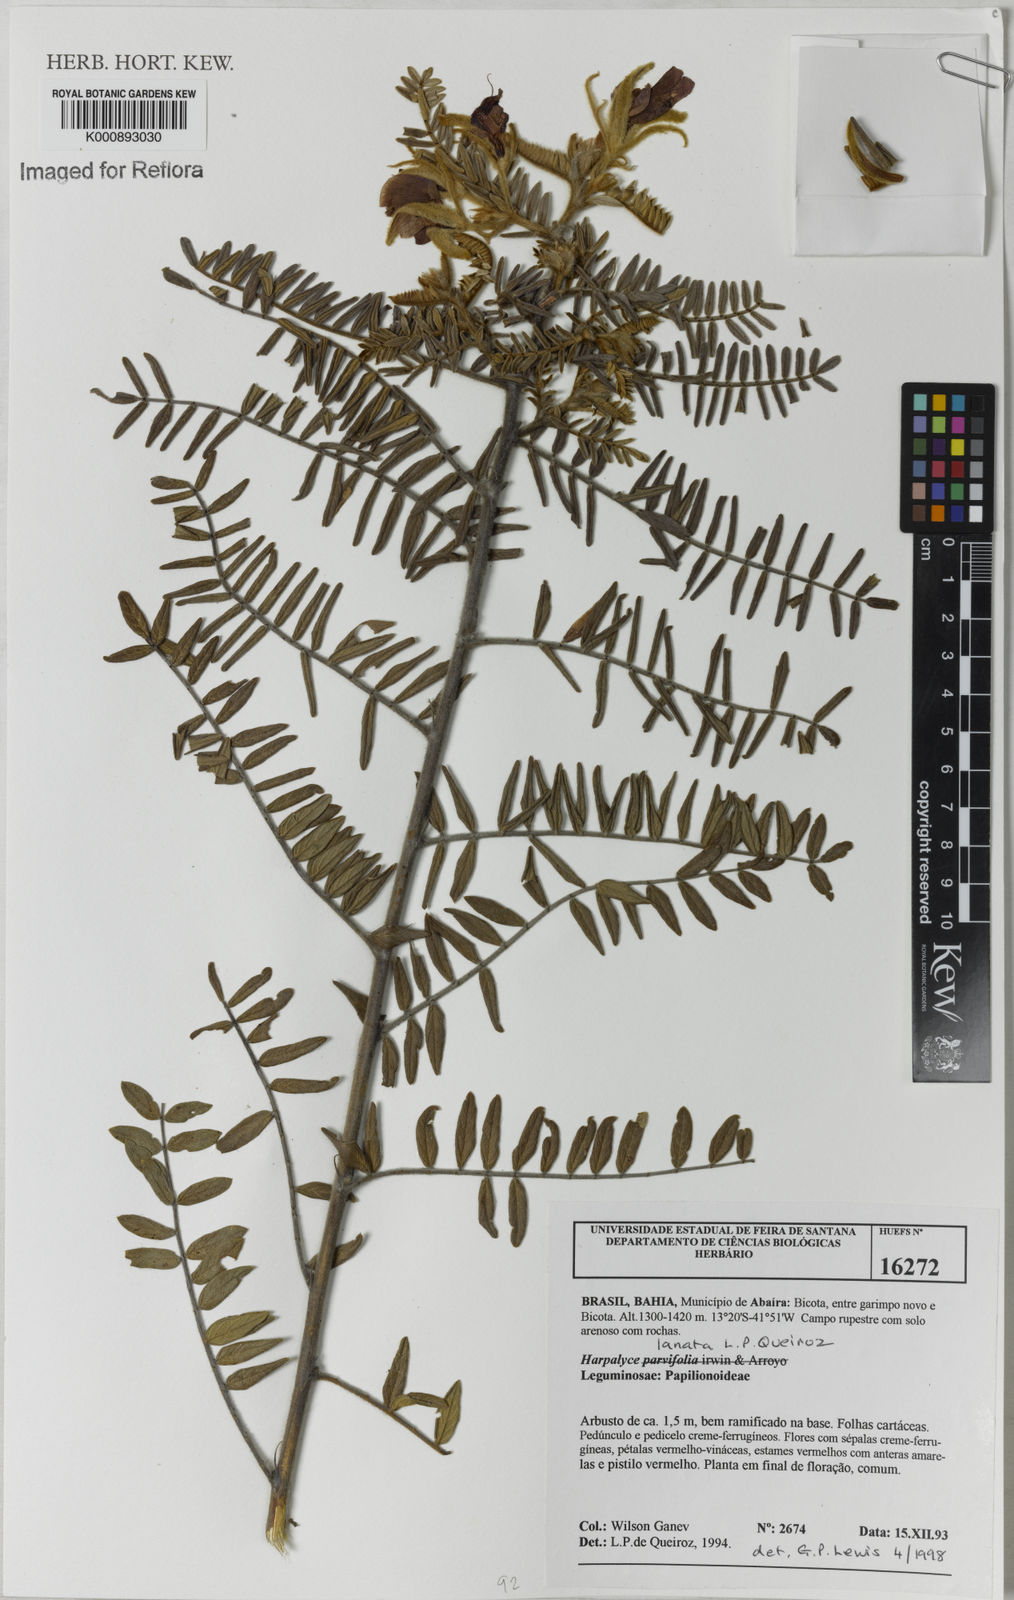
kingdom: Plantae
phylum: Tracheophyta
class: Magnoliopsida
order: Fabales
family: Fabaceae
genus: Harpalyce
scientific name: Harpalyce lanata
